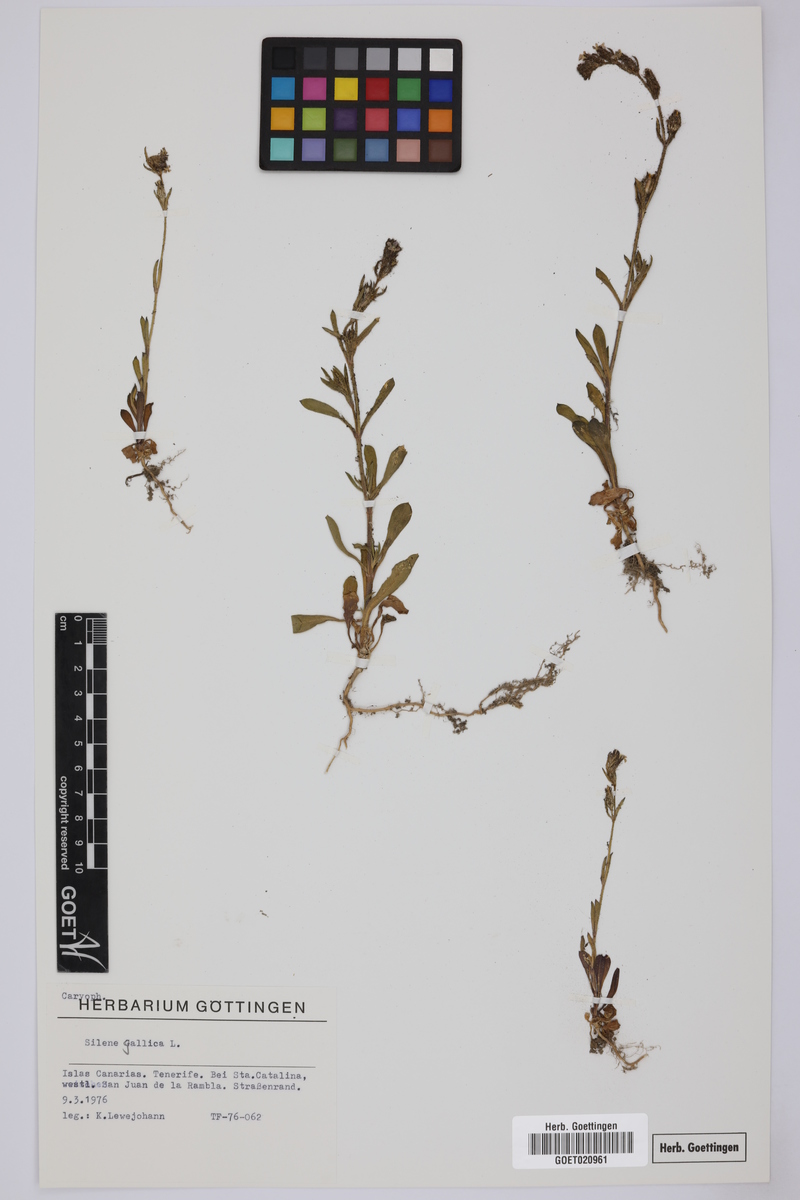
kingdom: Plantae
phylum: Tracheophyta
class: Magnoliopsida
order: Caryophyllales
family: Caryophyllaceae
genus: Silene
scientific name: Silene gallica
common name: Small-flowered catchfly
